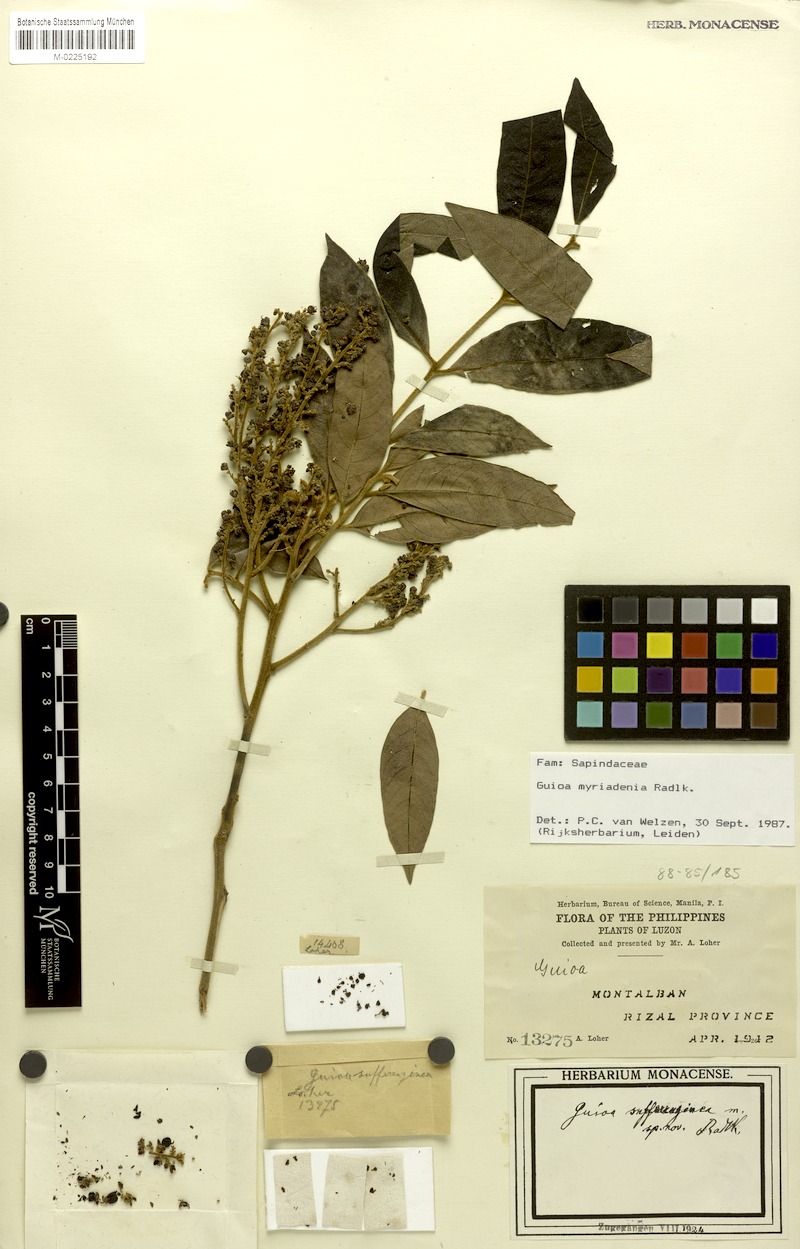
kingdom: Plantae
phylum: Tracheophyta
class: Magnoliopsida
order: Sapindales
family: Sapindaceae
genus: Guioa
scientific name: Guioa myriadenia
